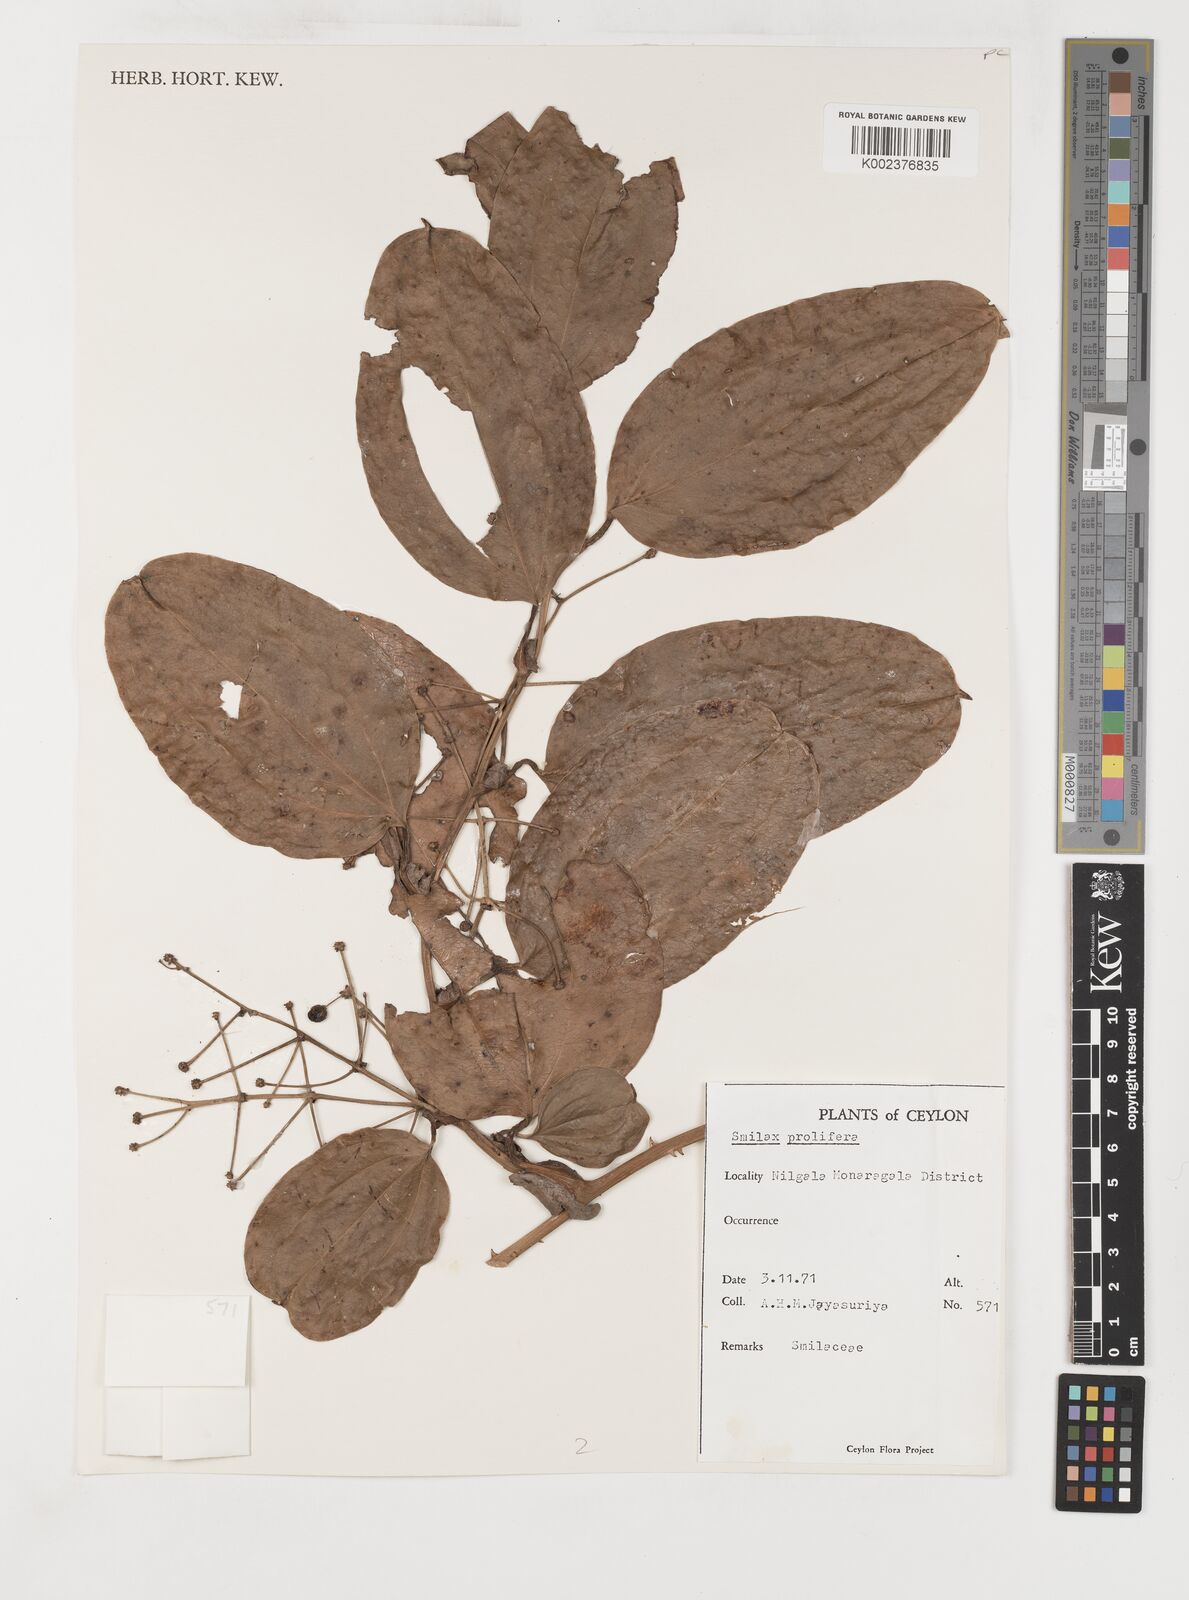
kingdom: Plantae
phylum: Tracheophyta
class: Liliopsida
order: Liliales
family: Smilacaceae
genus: Smilax
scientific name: Smilax prolifera
